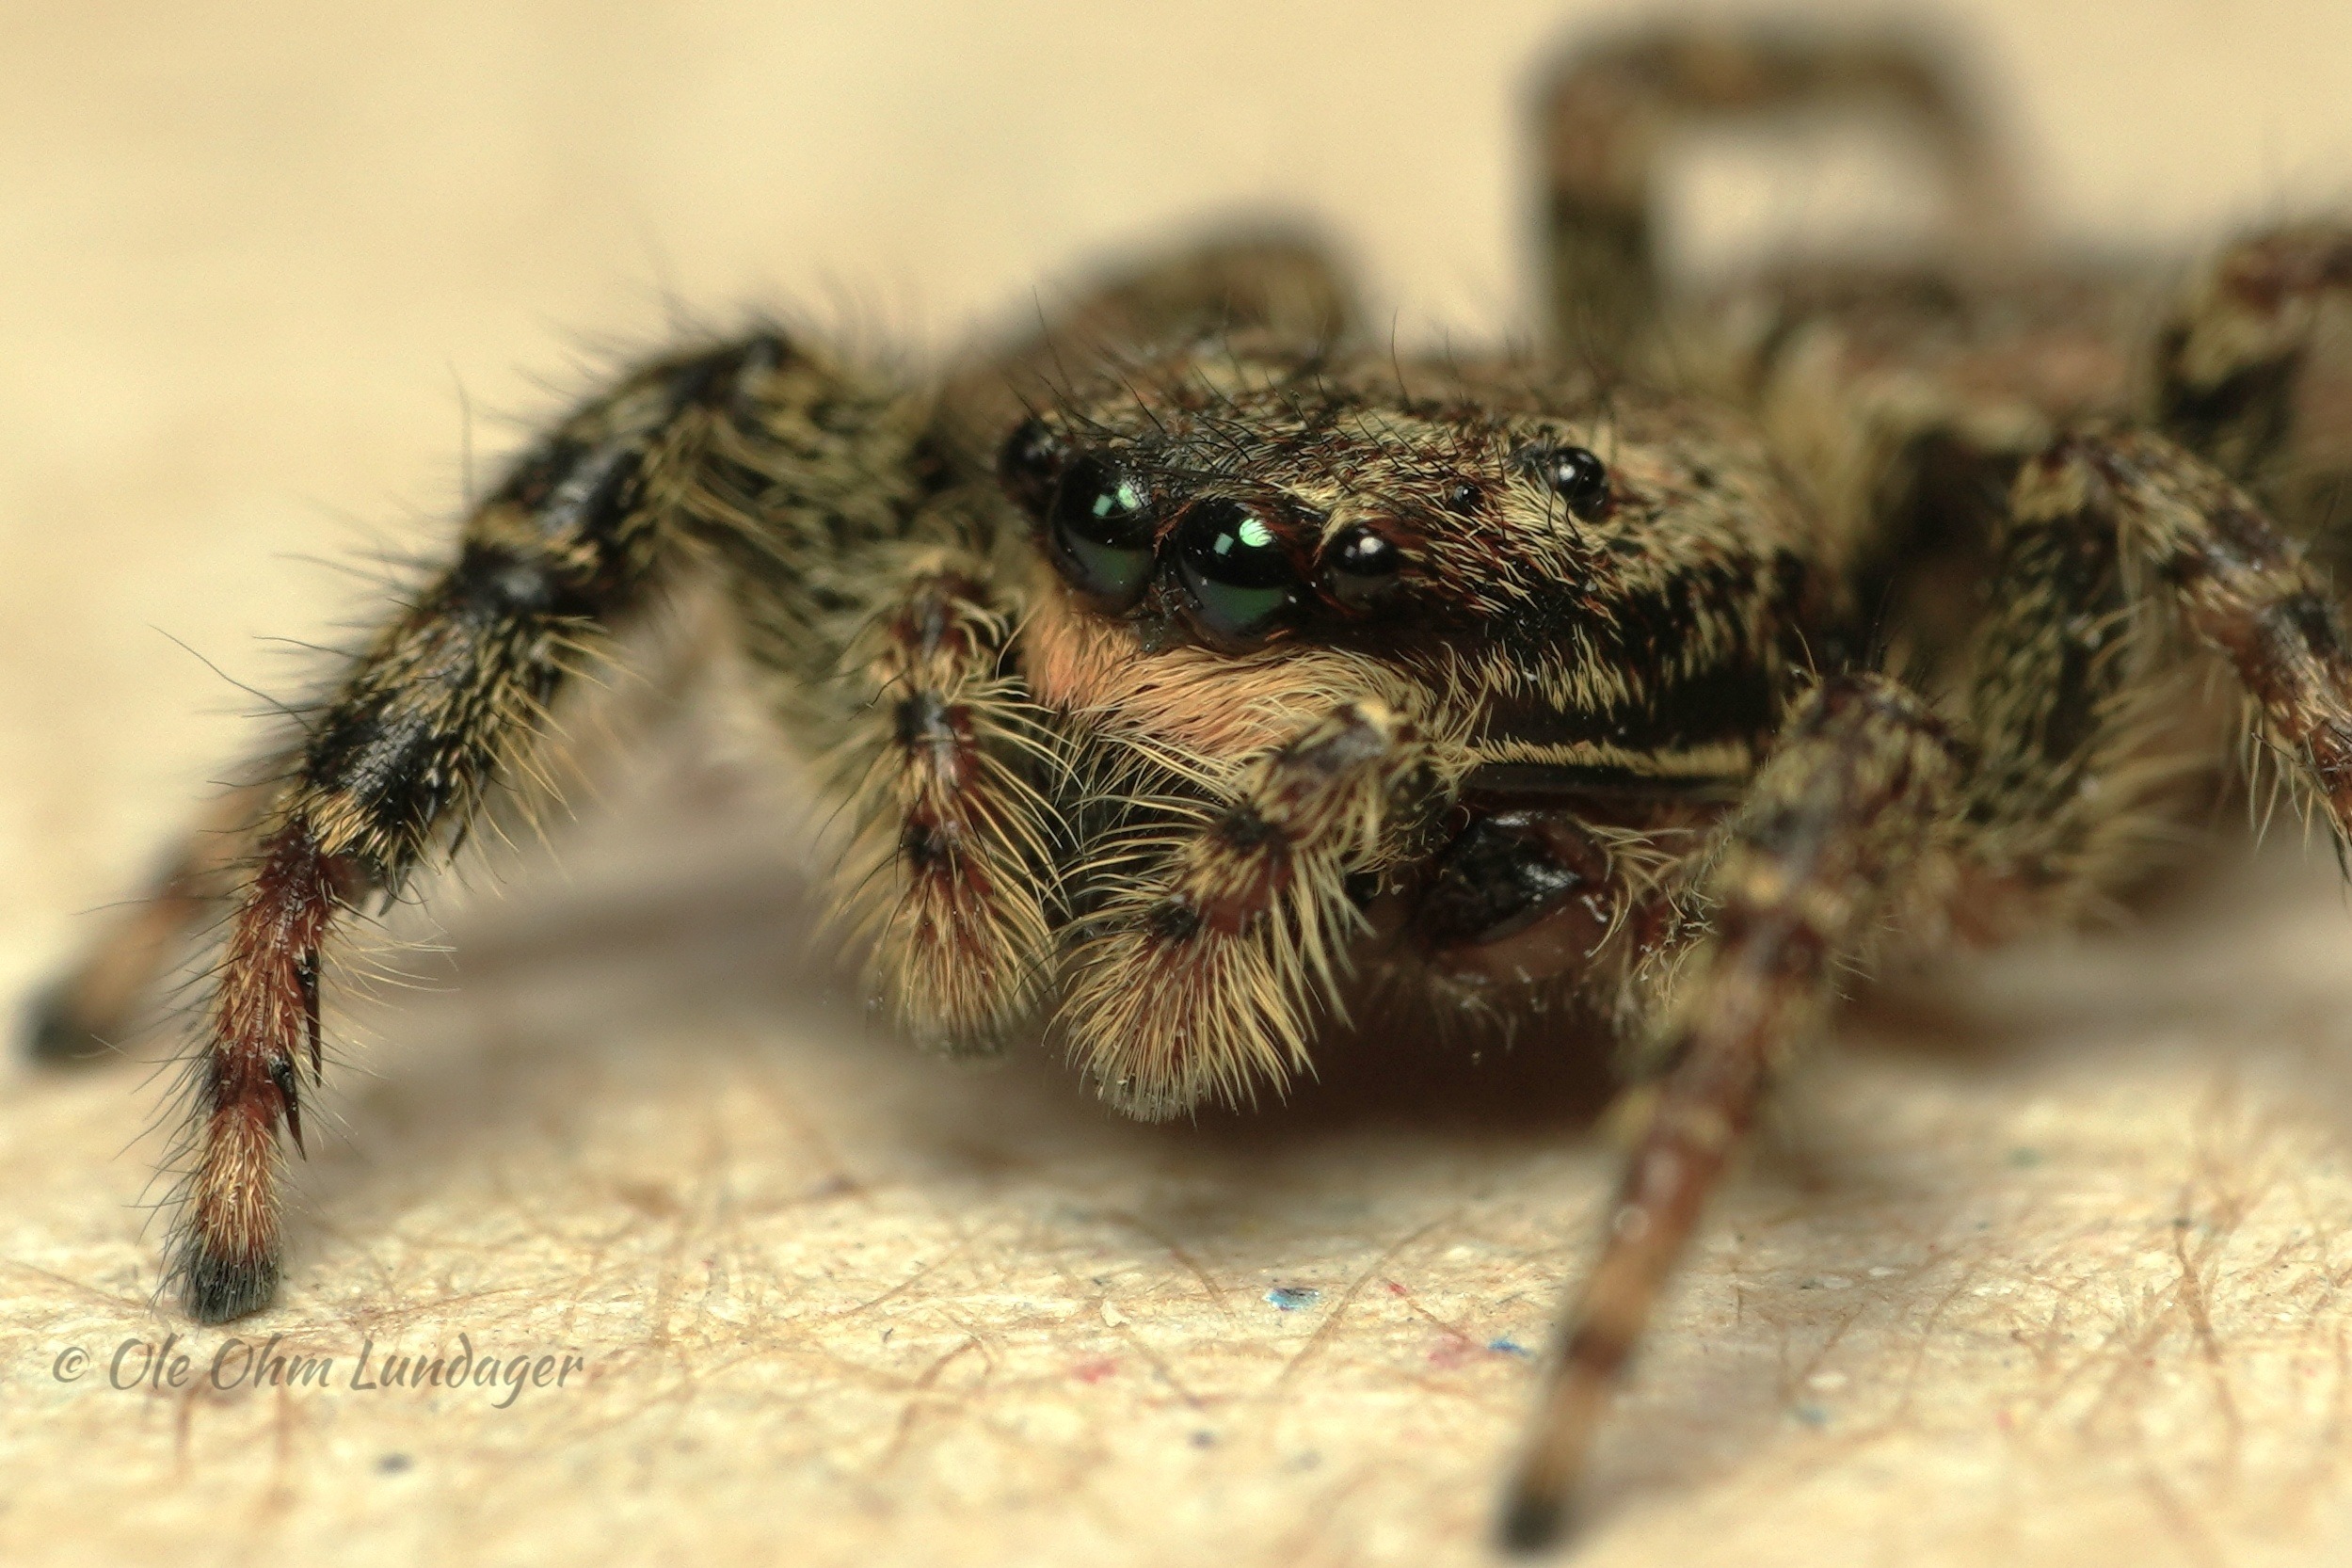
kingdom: Animalia
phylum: Arthropoda
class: Arachnida
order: Araneae
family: Salticidae
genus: Marpissa
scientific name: Marpissa muscosa
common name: Stor springedderkop
